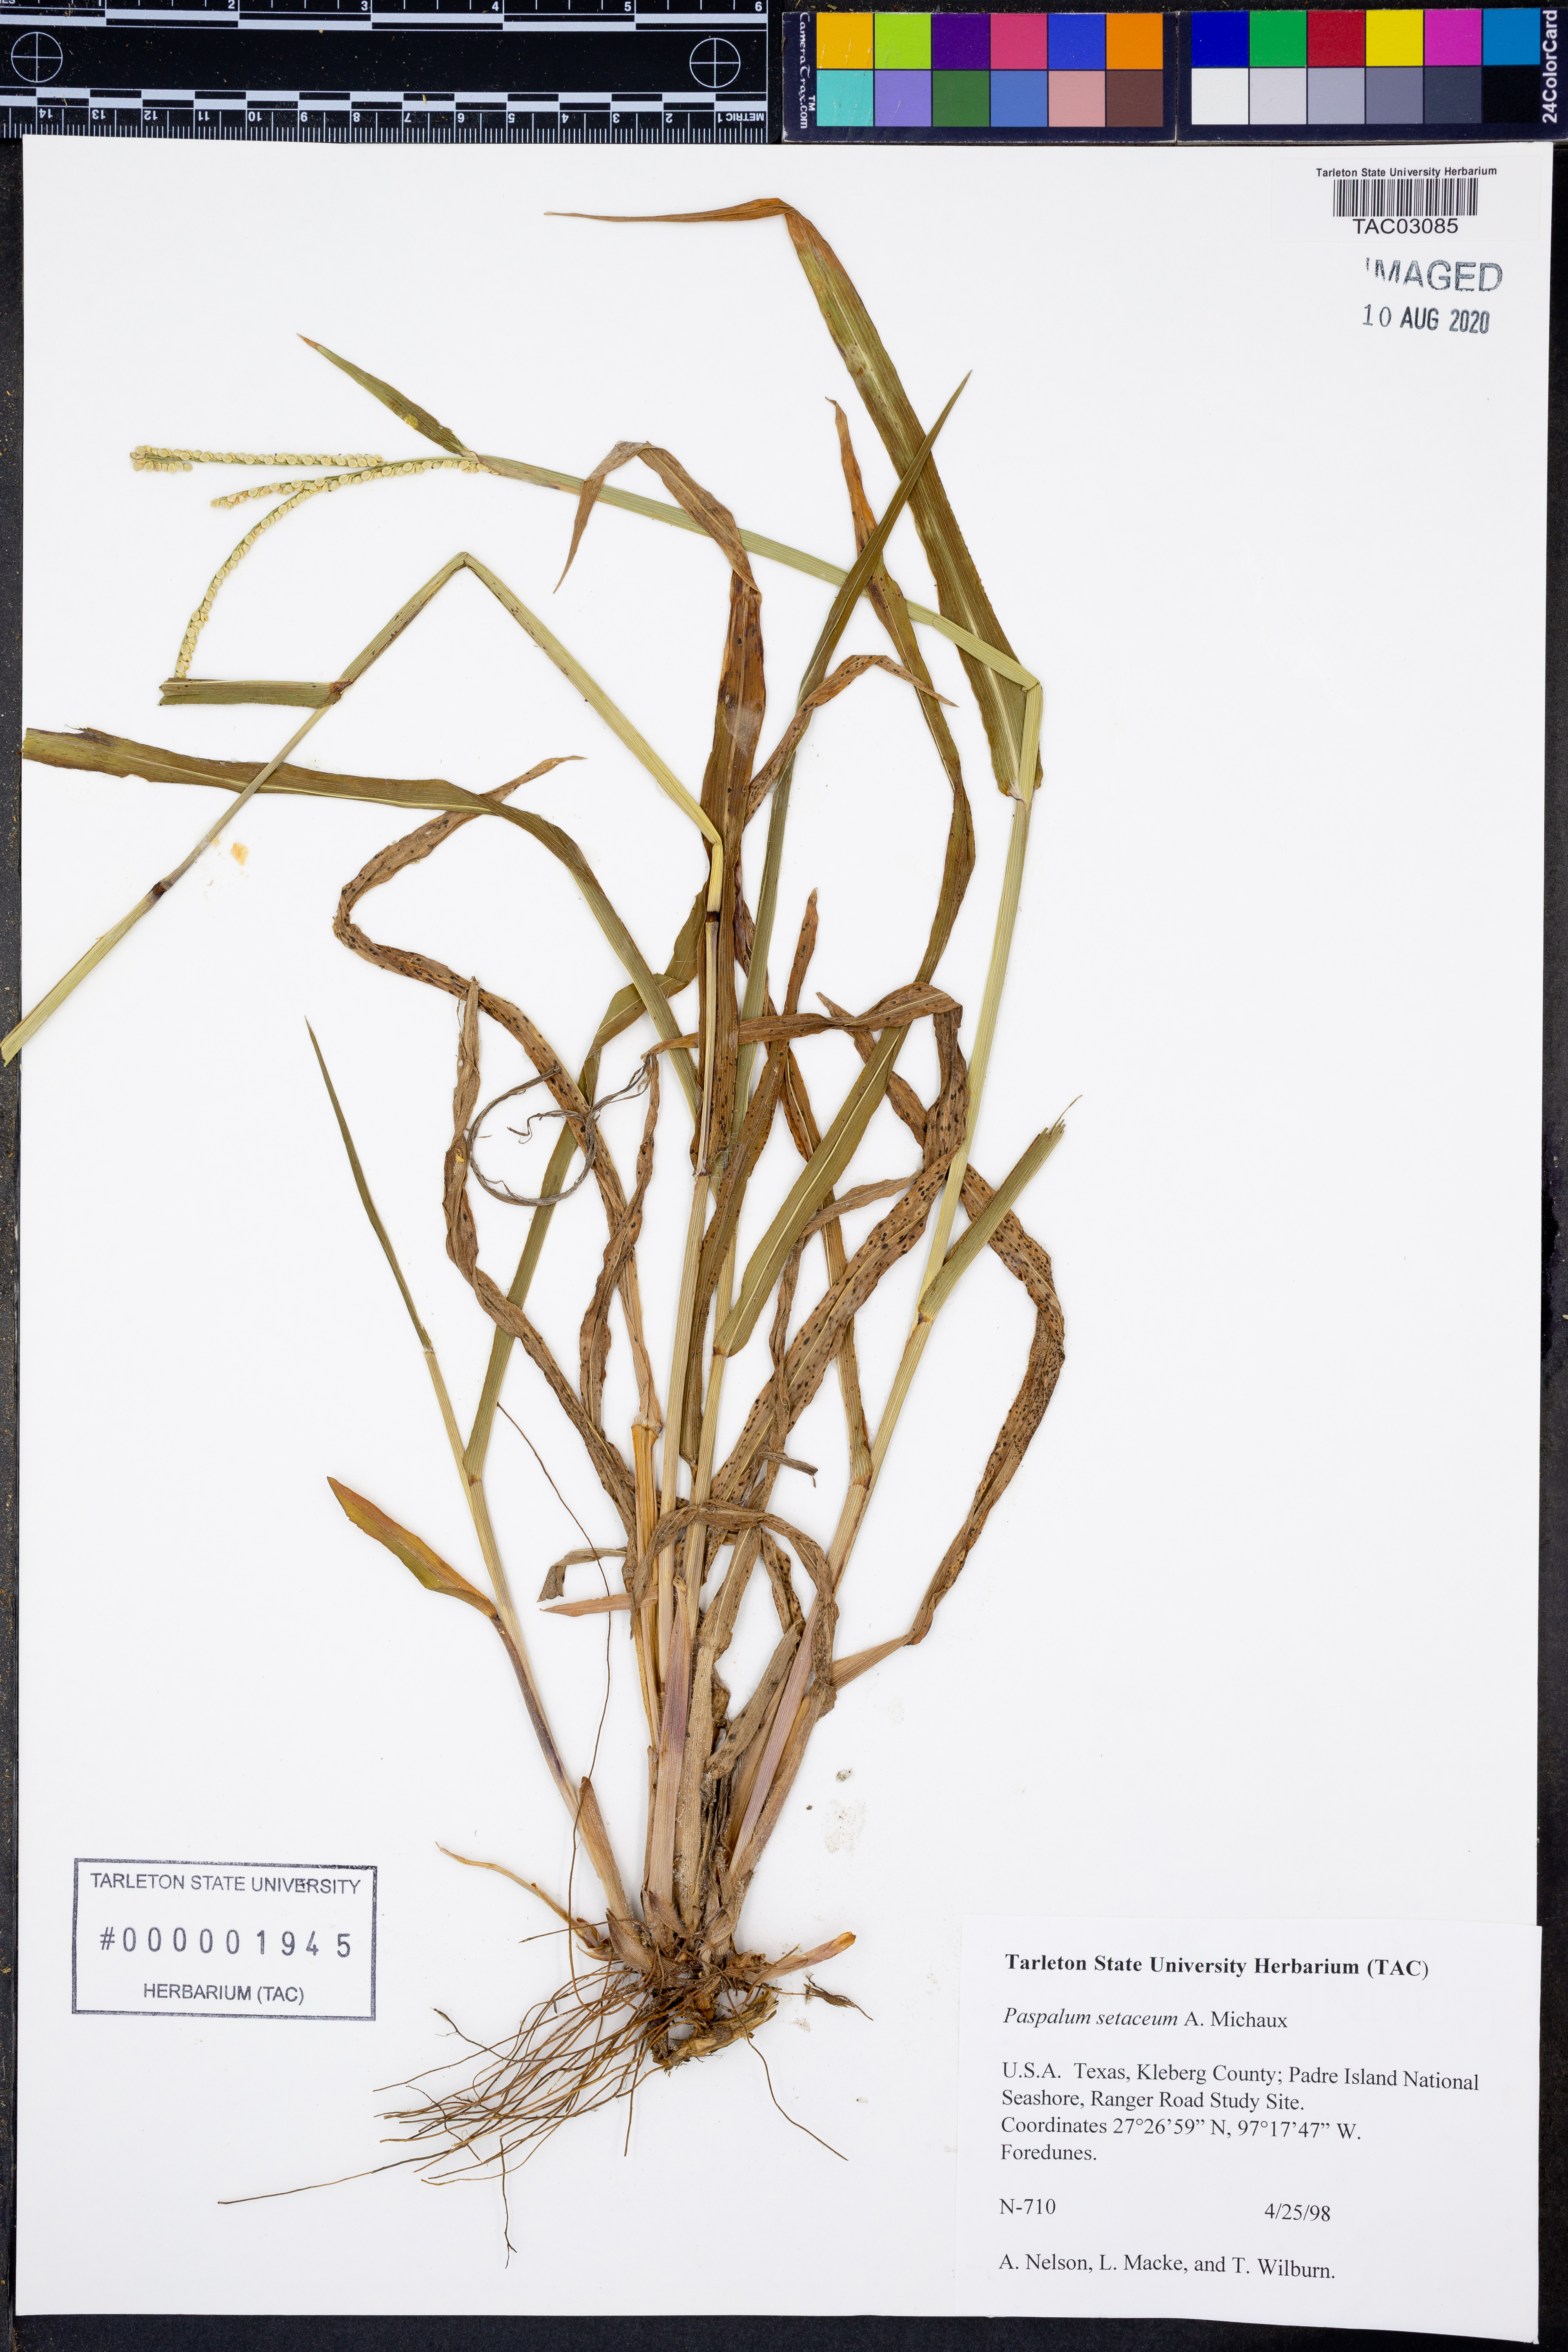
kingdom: Plantae
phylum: Tracheophyta
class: Liliopsida
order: Poales
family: Poaceae
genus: Paspalum
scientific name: Paspalum setaceum
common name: Slender paspalum
